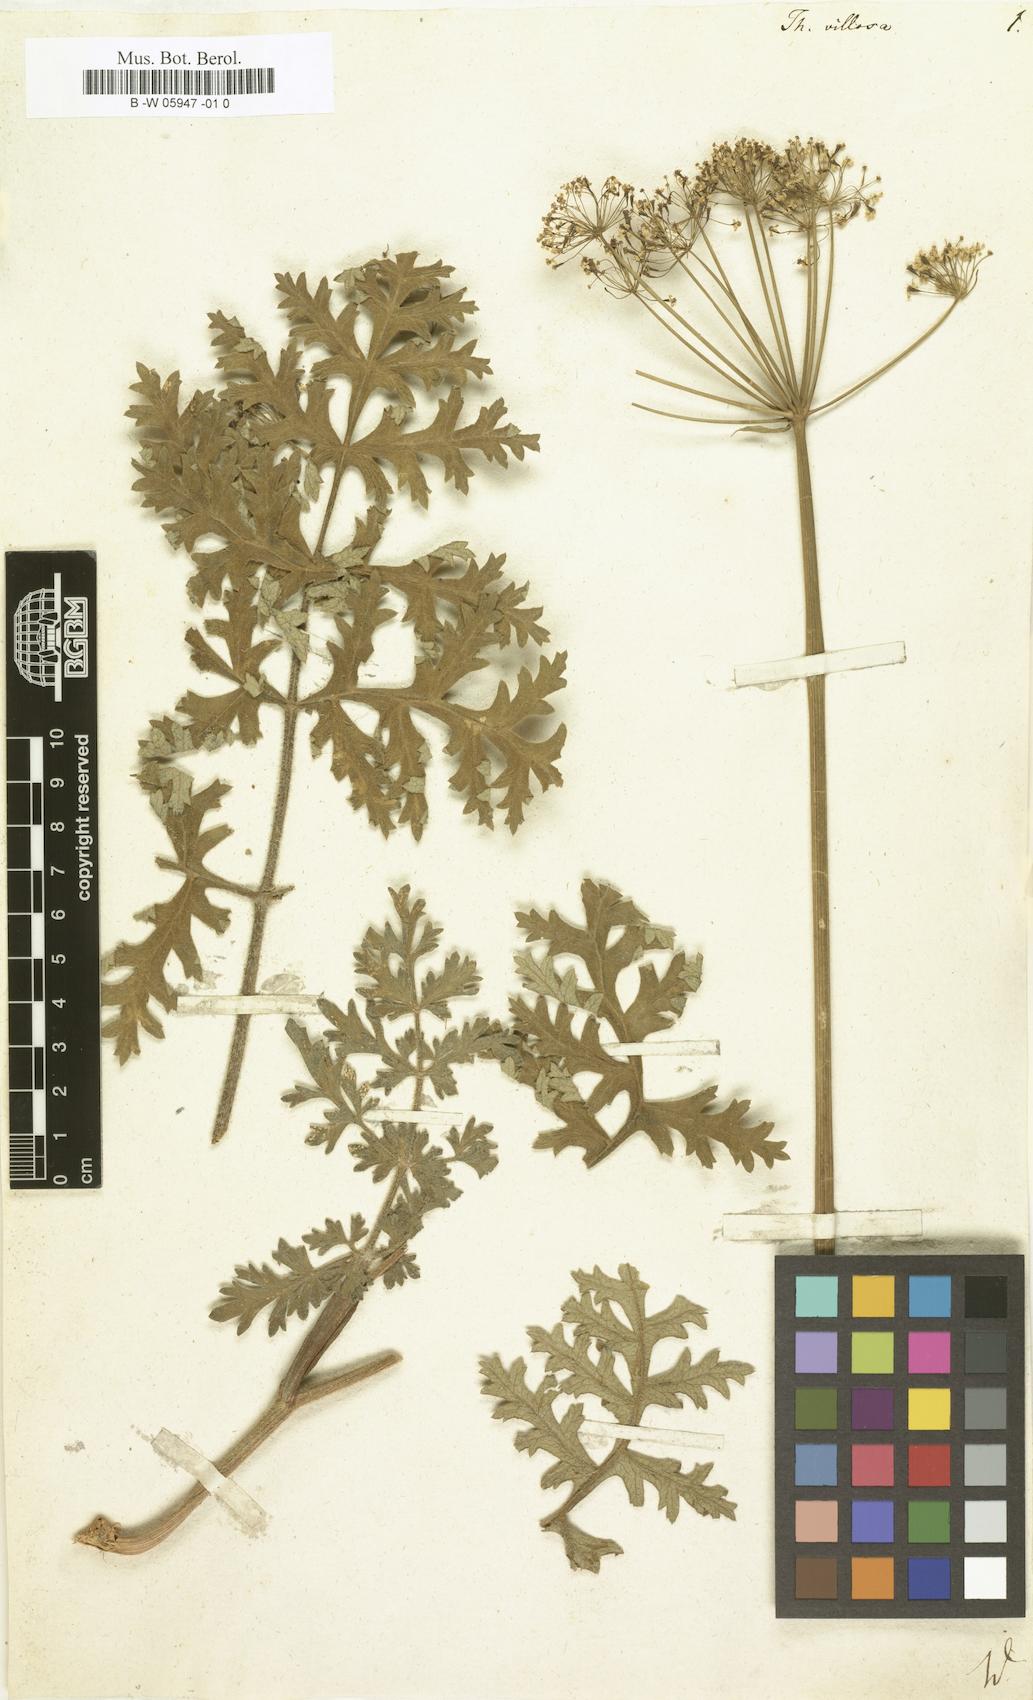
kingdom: Plantae
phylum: Tracheophyta
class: Magnoliopsida
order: Apiales
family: Apiaceae
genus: Thapsia
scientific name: Thapsia villosa
